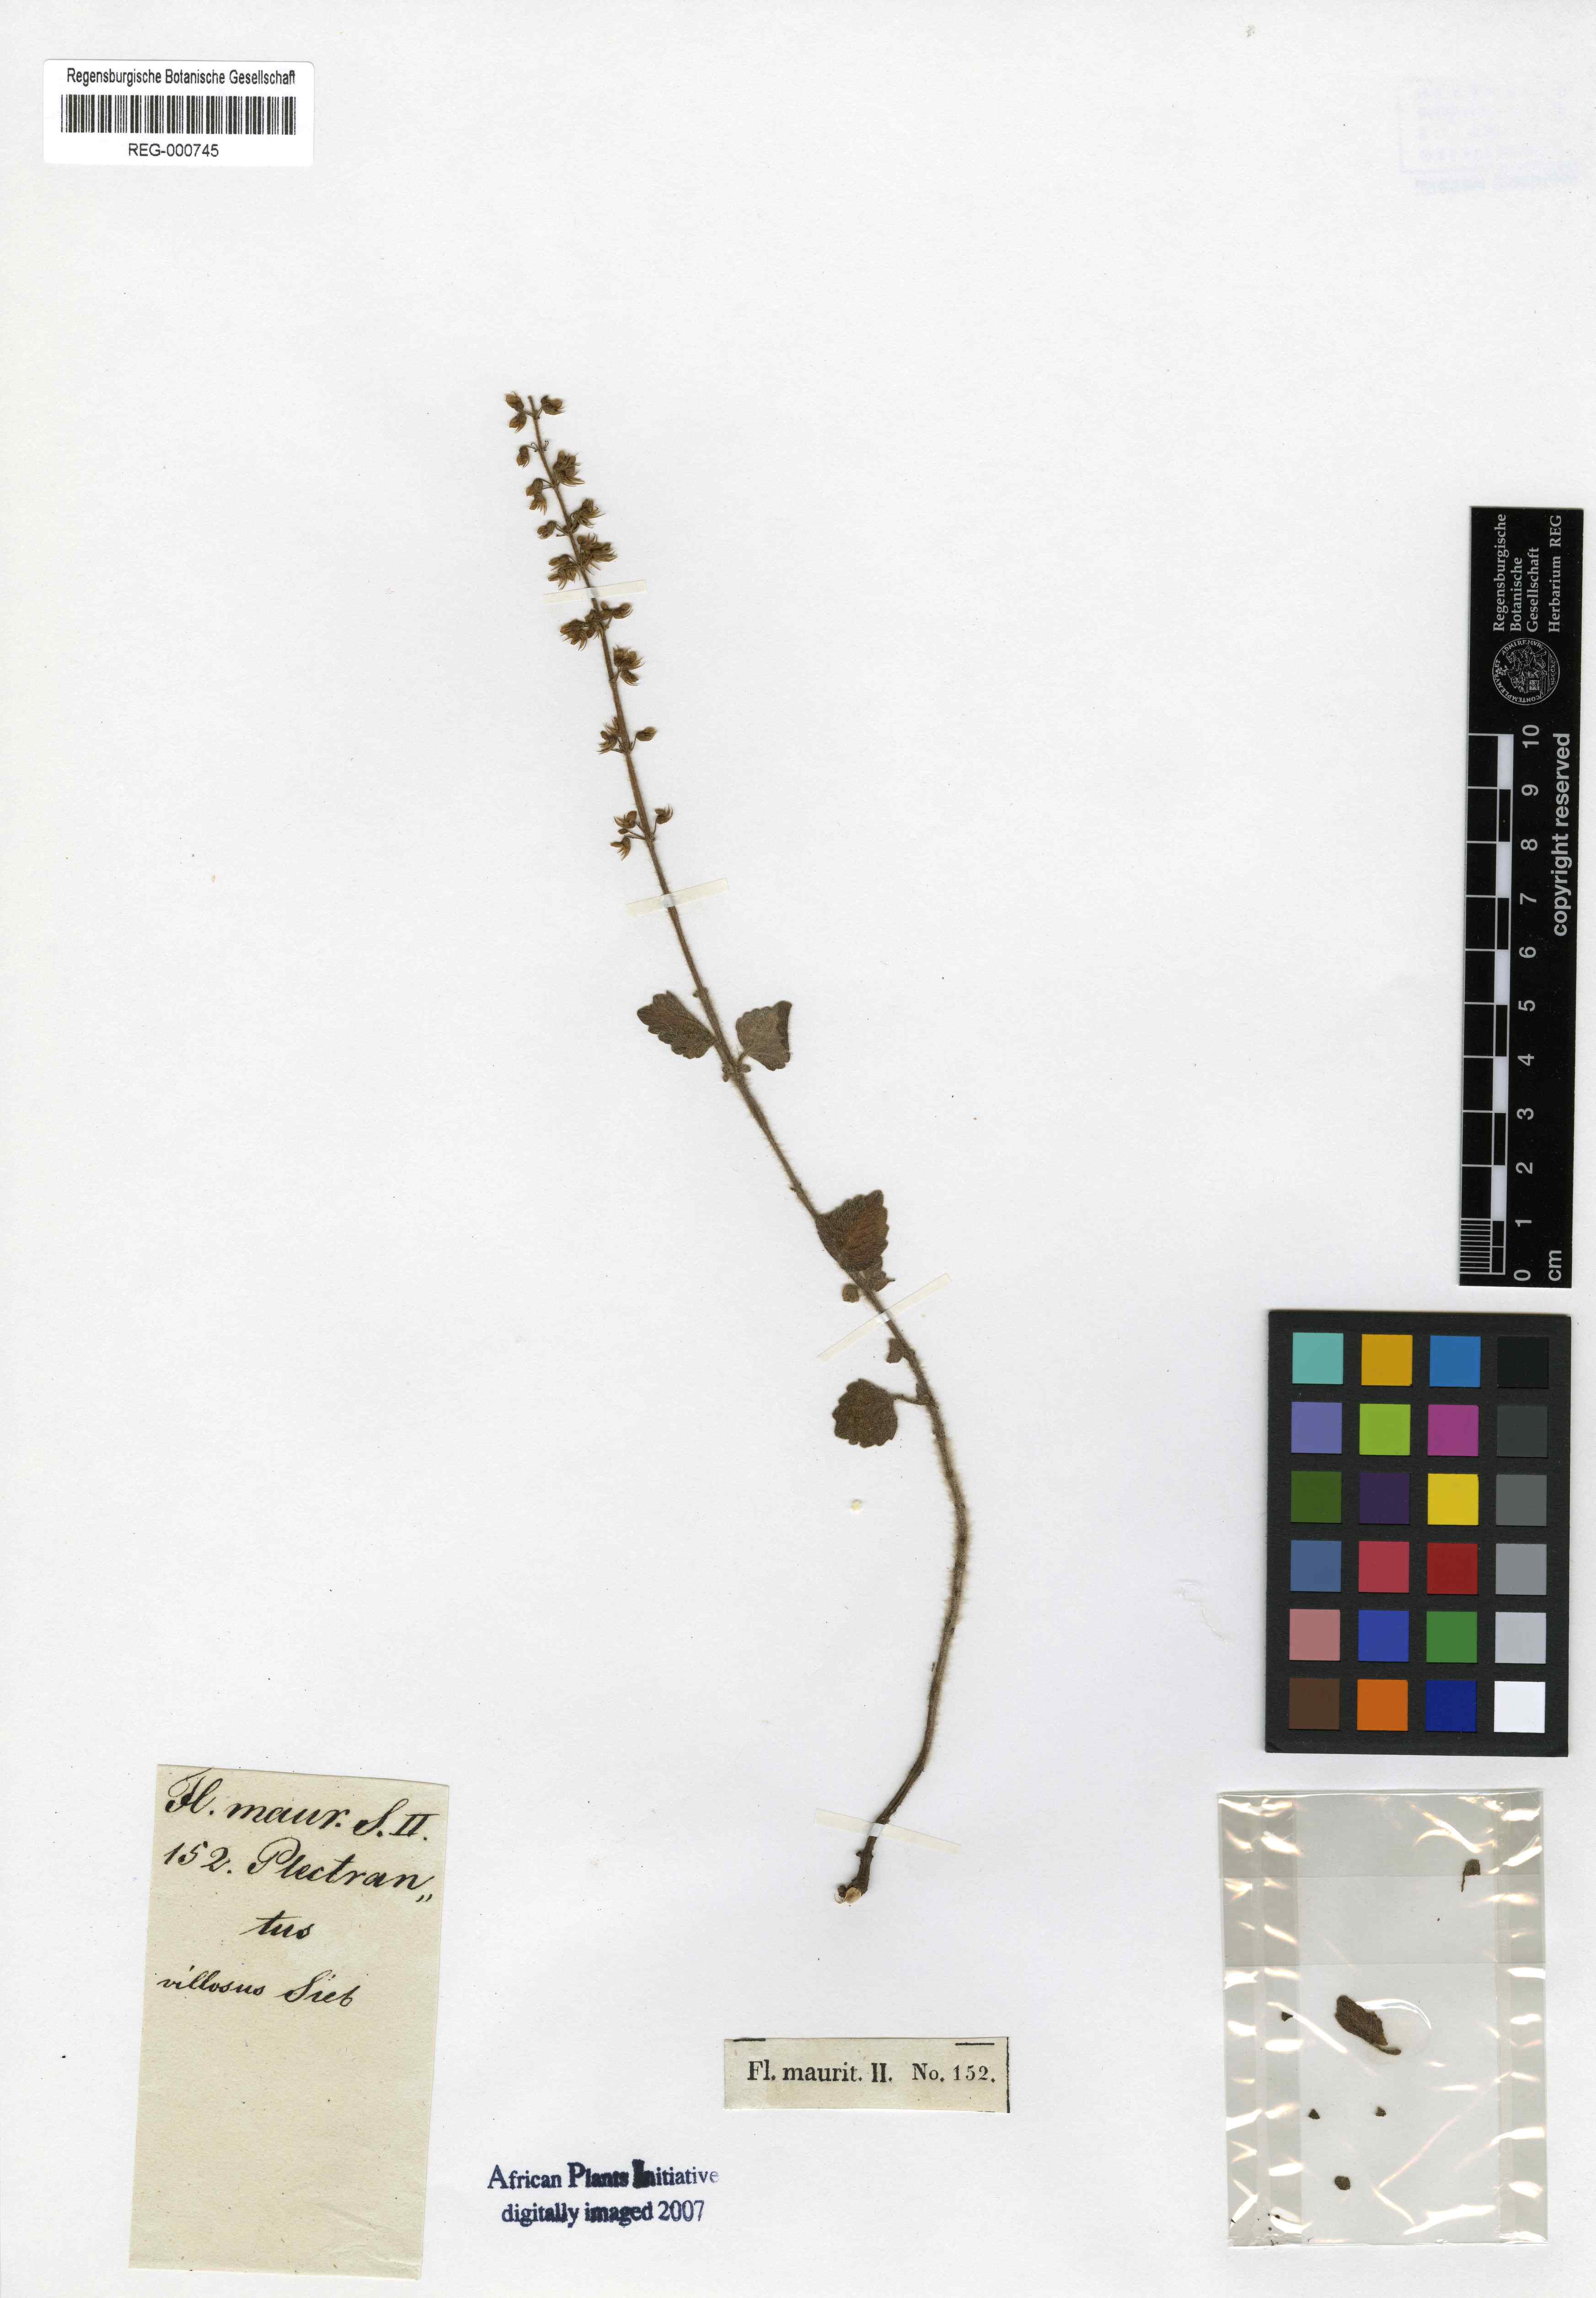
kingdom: Plantae
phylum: Tracheophyta
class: Magnoliopsida
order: Lamiales
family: Lamiaceae
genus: Coleus
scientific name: Coleus
